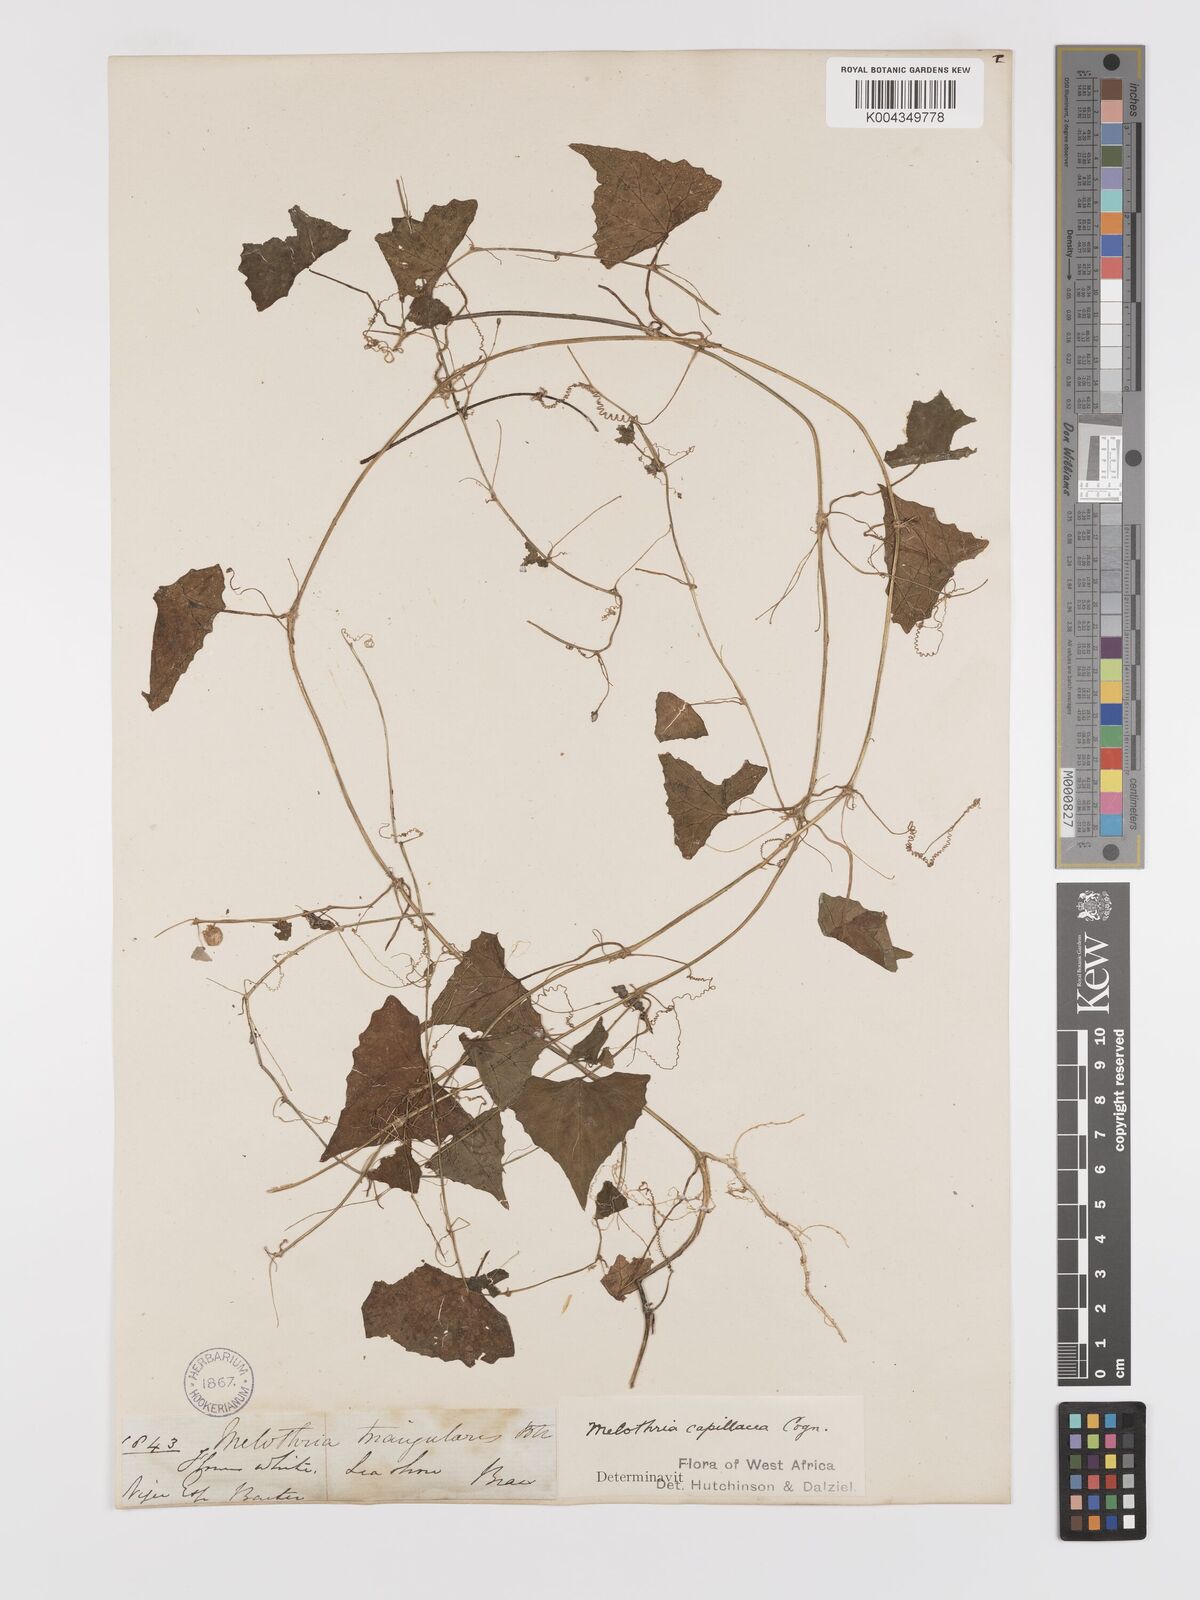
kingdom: Plantae
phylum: Tracheophyta
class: Magnoliopsida
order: Cucurbitales
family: Cucurbitaceae
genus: Zehneria
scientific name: Zehneria capillacea
